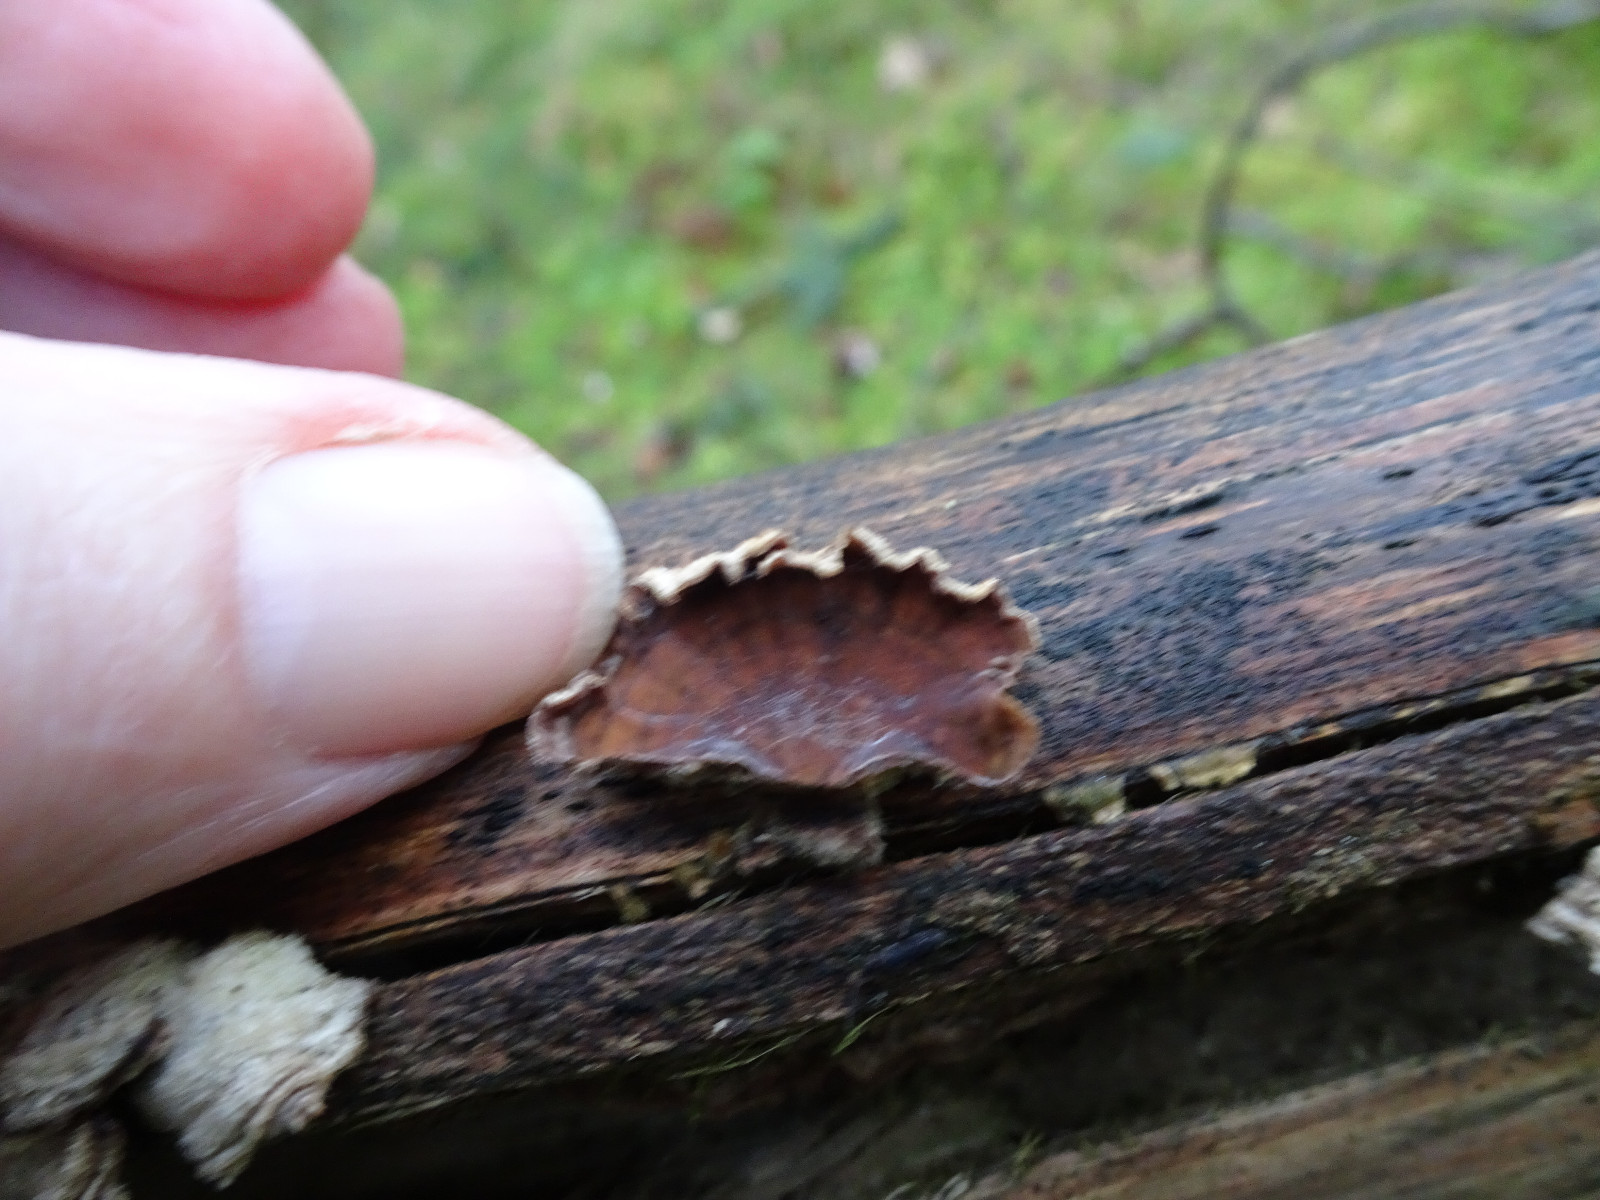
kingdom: Fungi
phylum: Basidiomycota
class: Agaricomycetes
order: Agaricales
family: Cyphellaceae
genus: Chondrostereum
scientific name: Chondrostereum purpureum
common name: purpurlædersvamp
